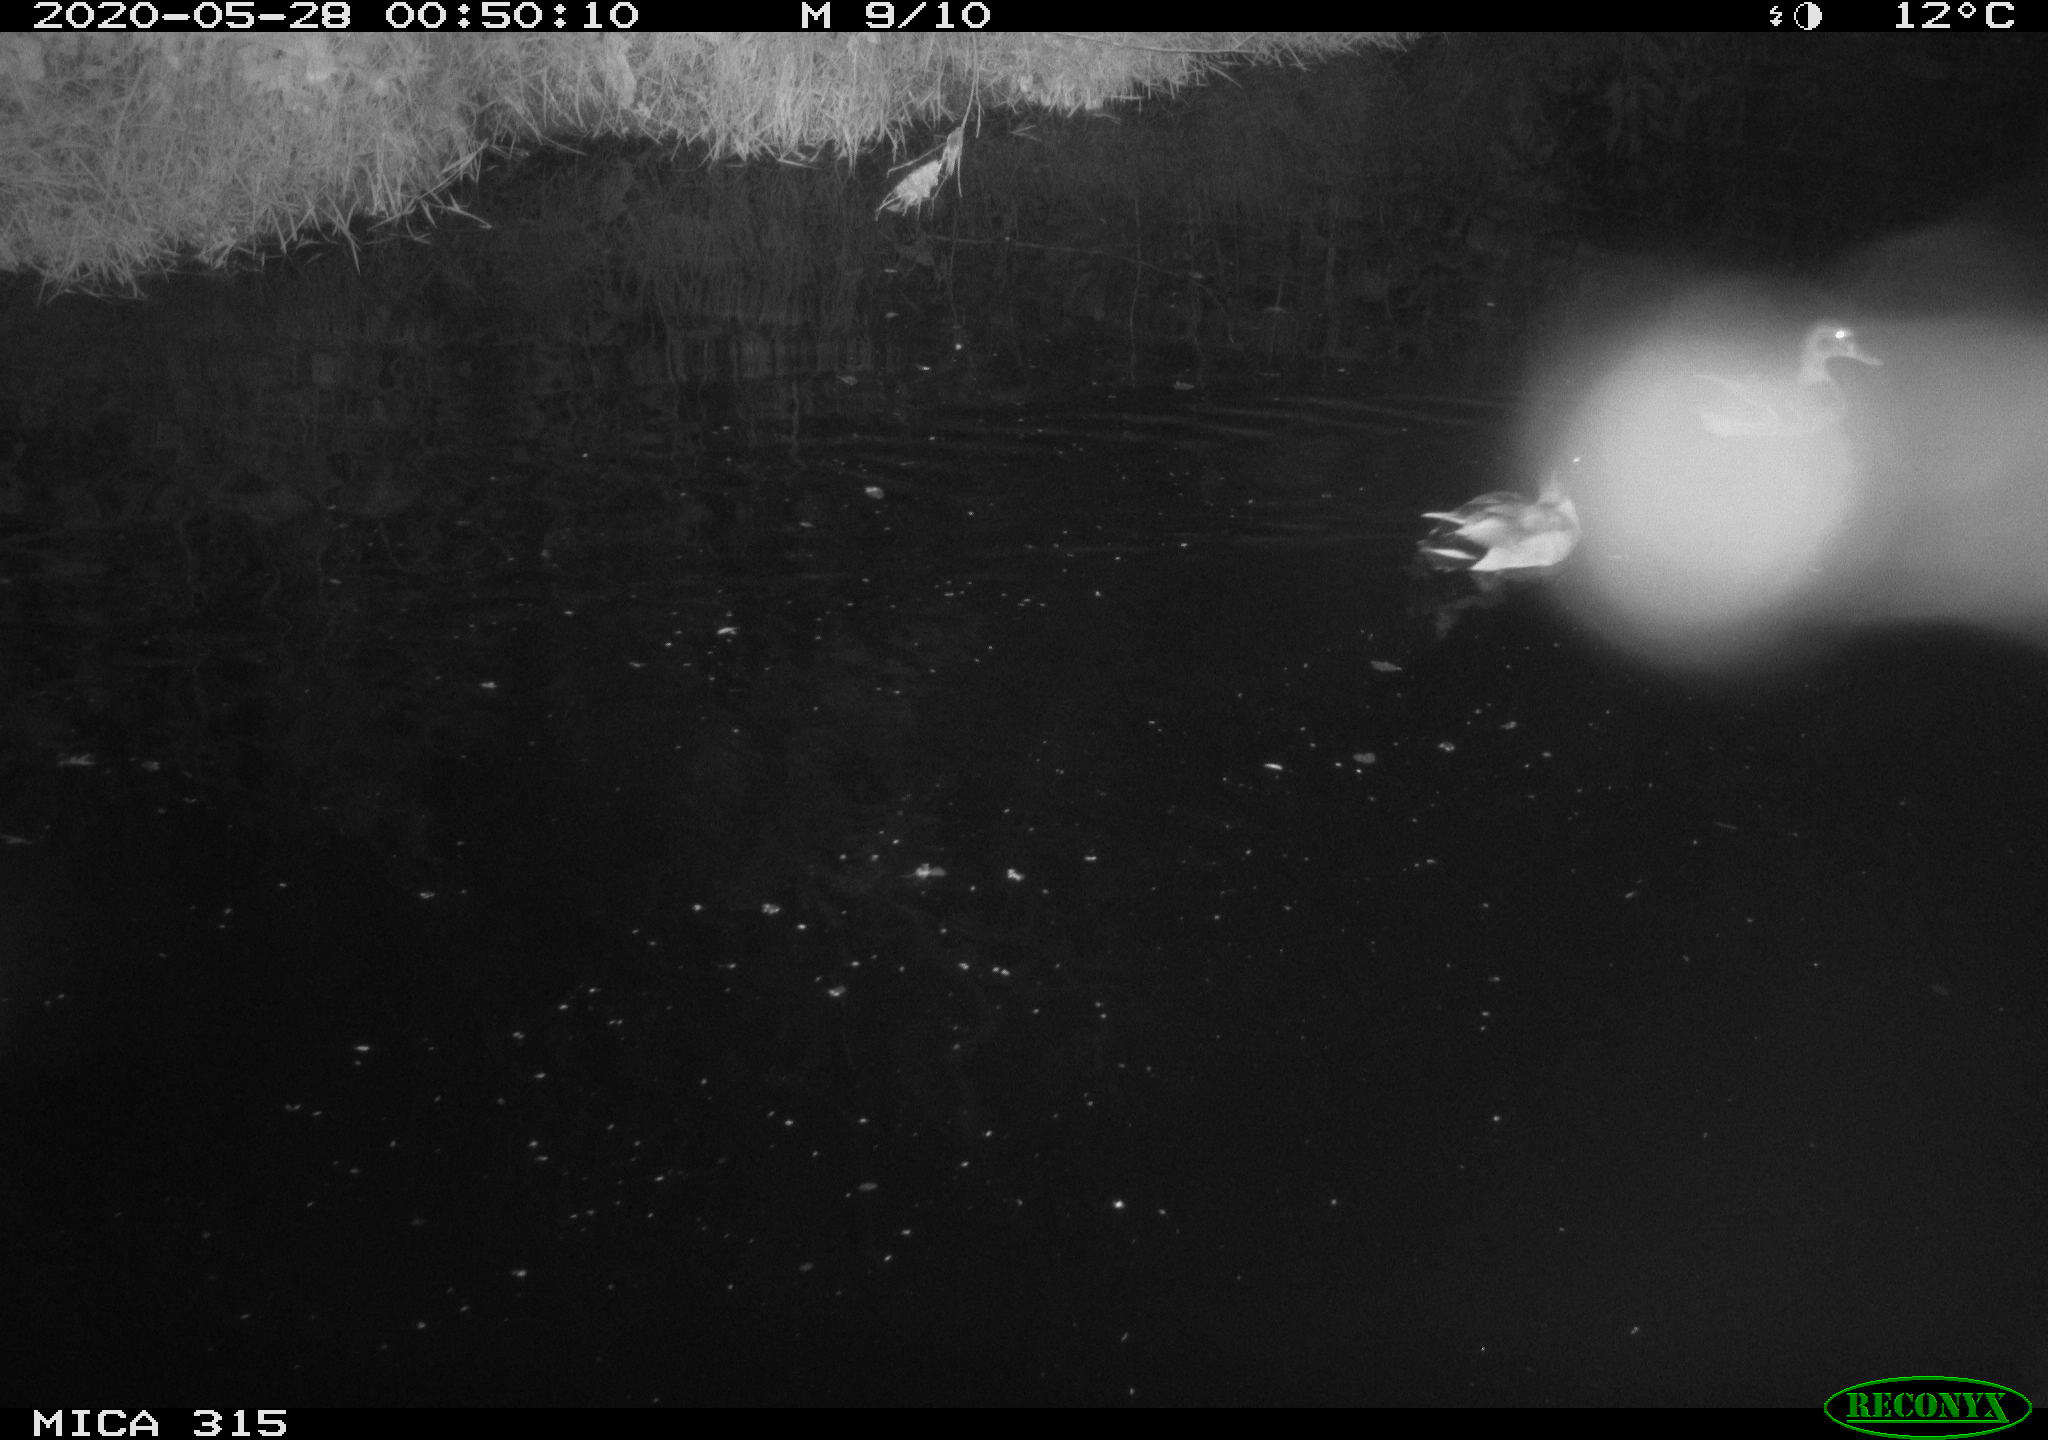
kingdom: Animalia
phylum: Chordata
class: Aves
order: Anseriformes
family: Anatidae
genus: Anas
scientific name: Anas platyrhynchos
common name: Mallard
